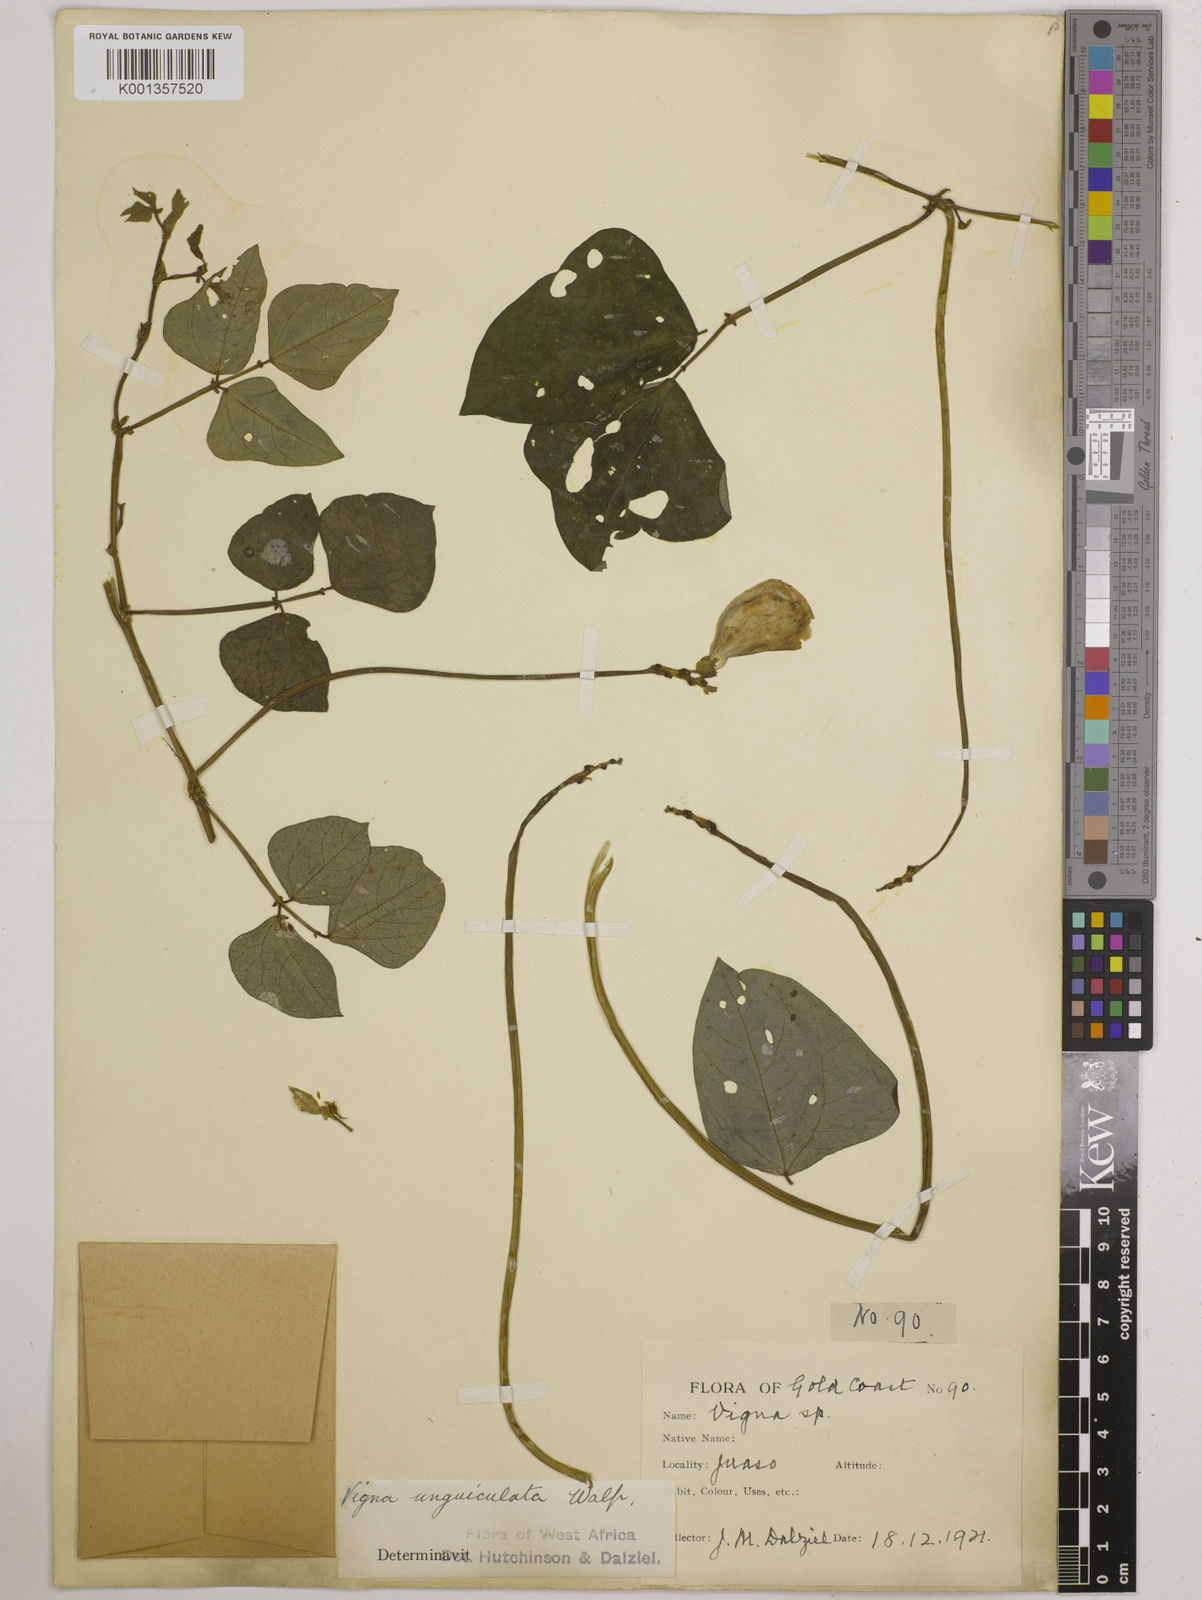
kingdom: Plantae
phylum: Tracheophyta
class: Magnoliopsida
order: Fabales
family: Fabaceae
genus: Vigna
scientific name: Vigna
